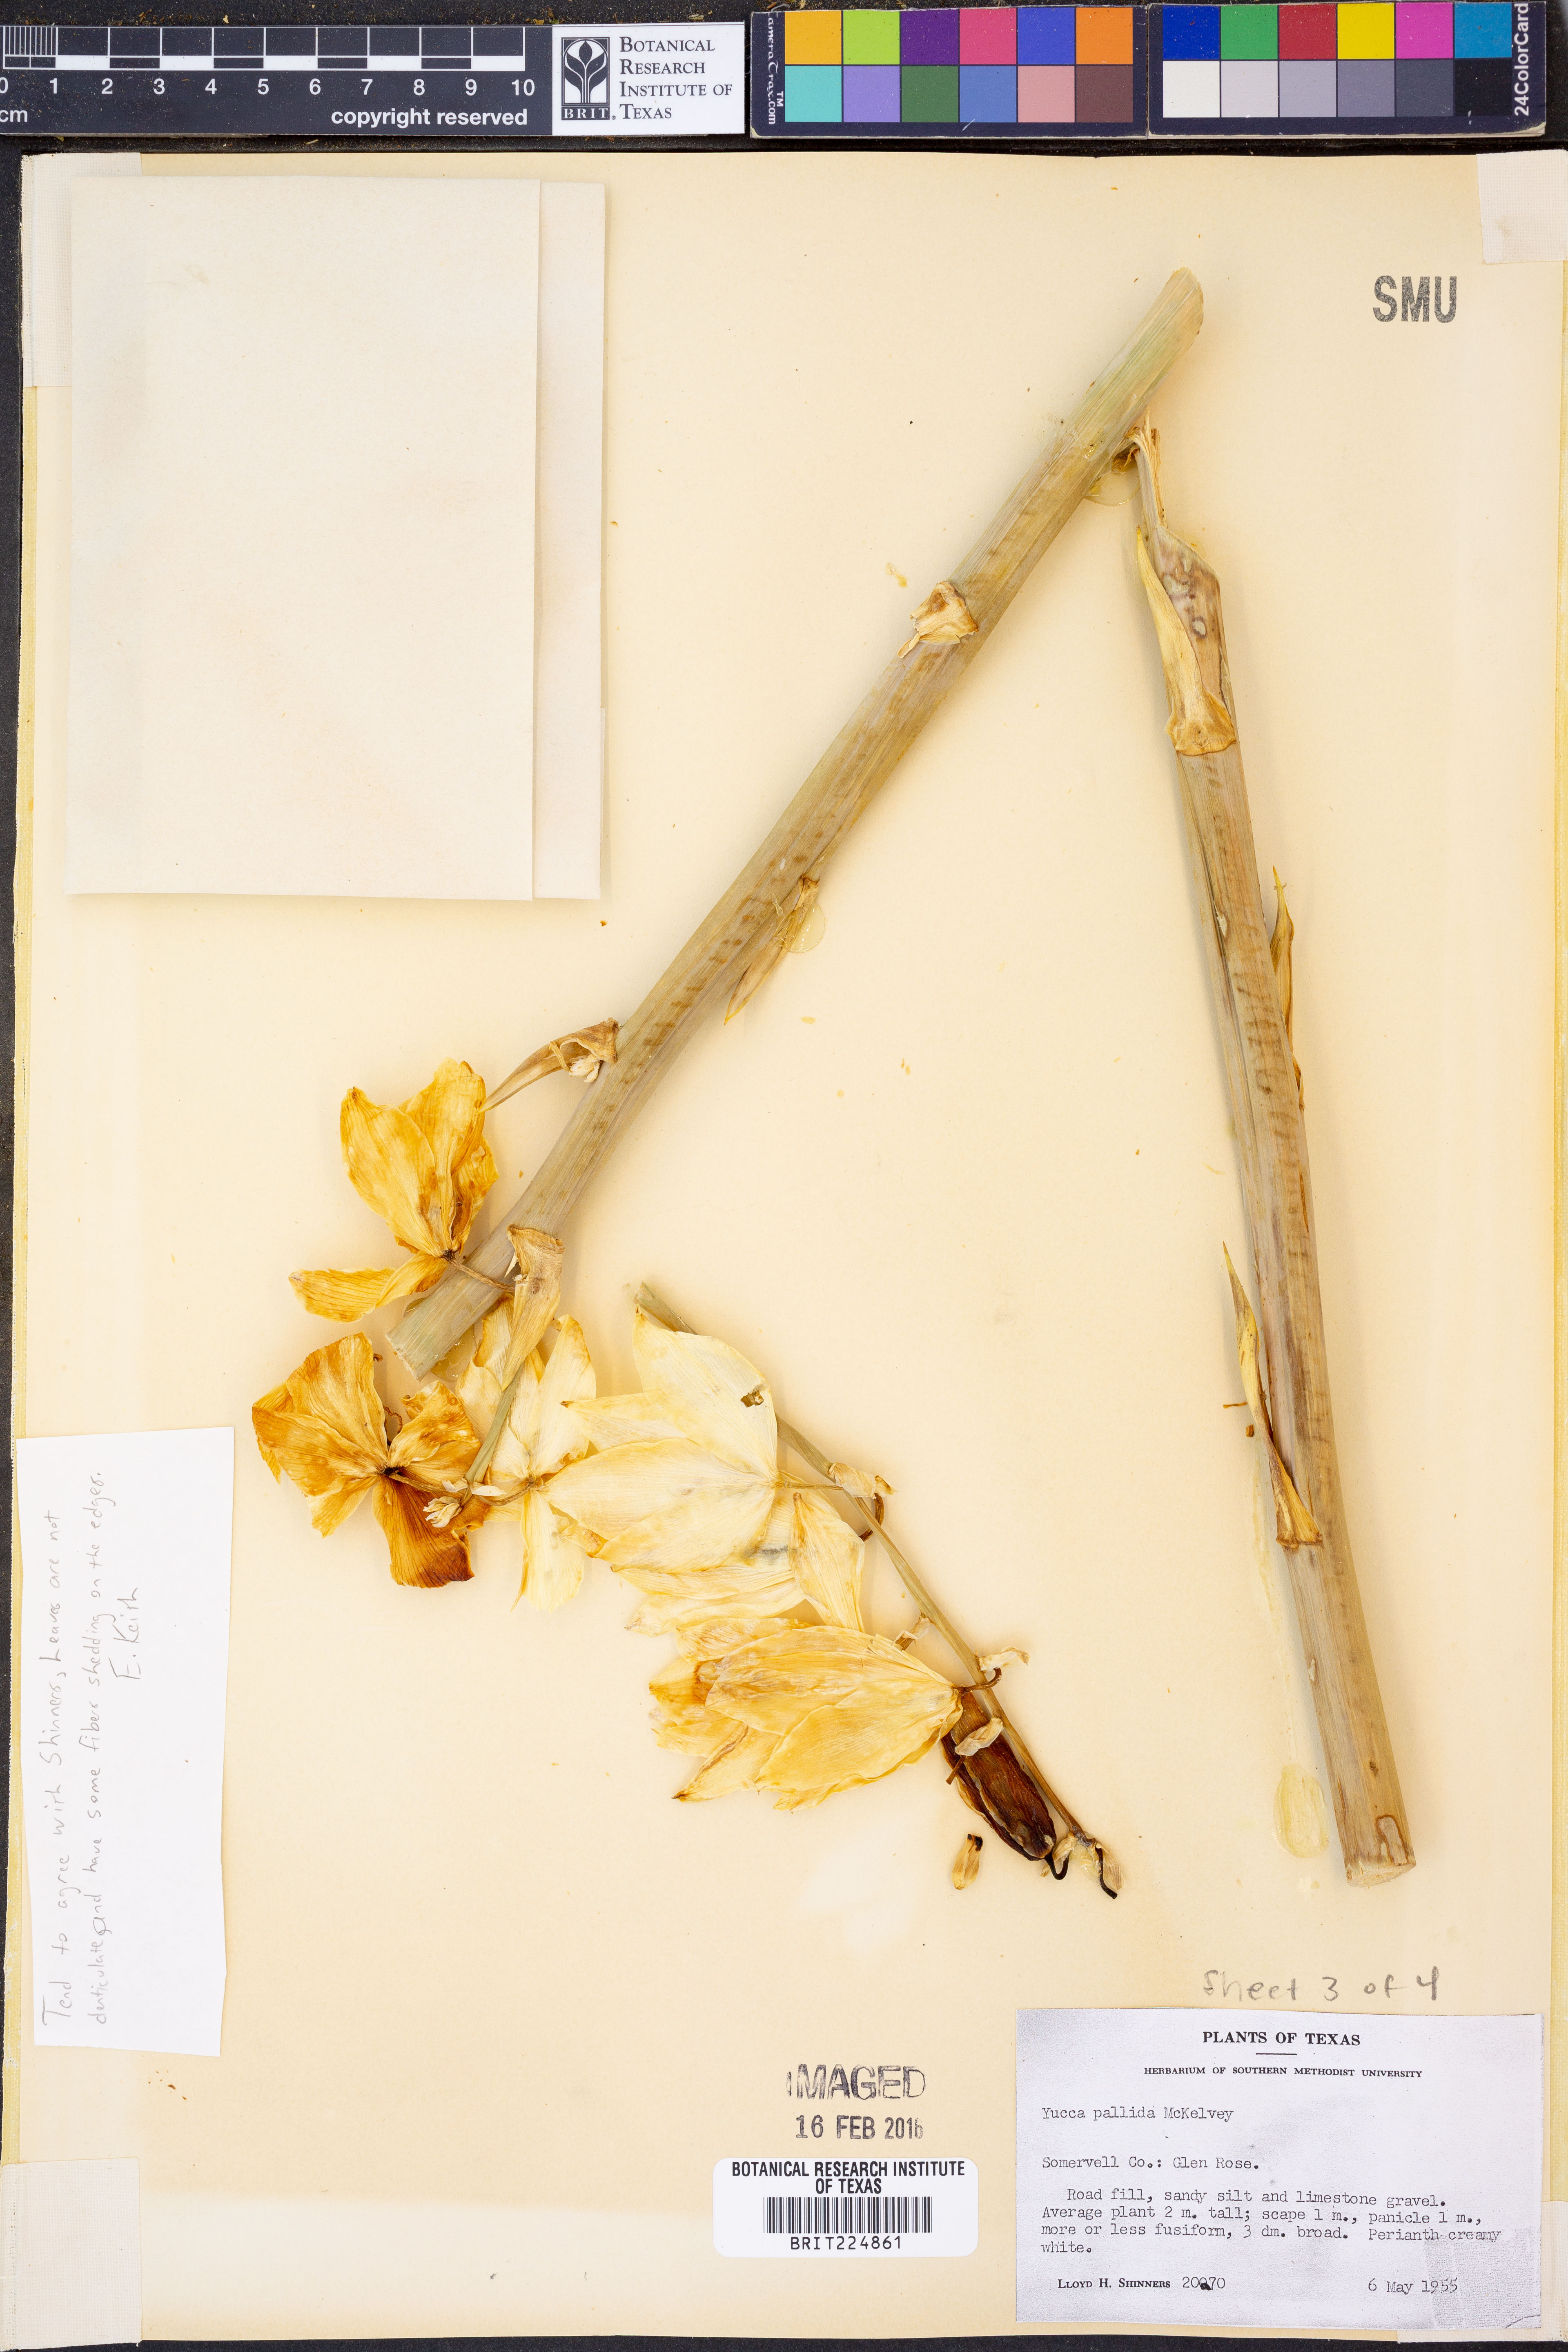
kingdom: Plantae
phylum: Tracheophyta
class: Liliopsida
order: Asparagales
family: Asparagaceae
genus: Yucca
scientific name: Yucca pallida
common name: Pale leaf yucca
